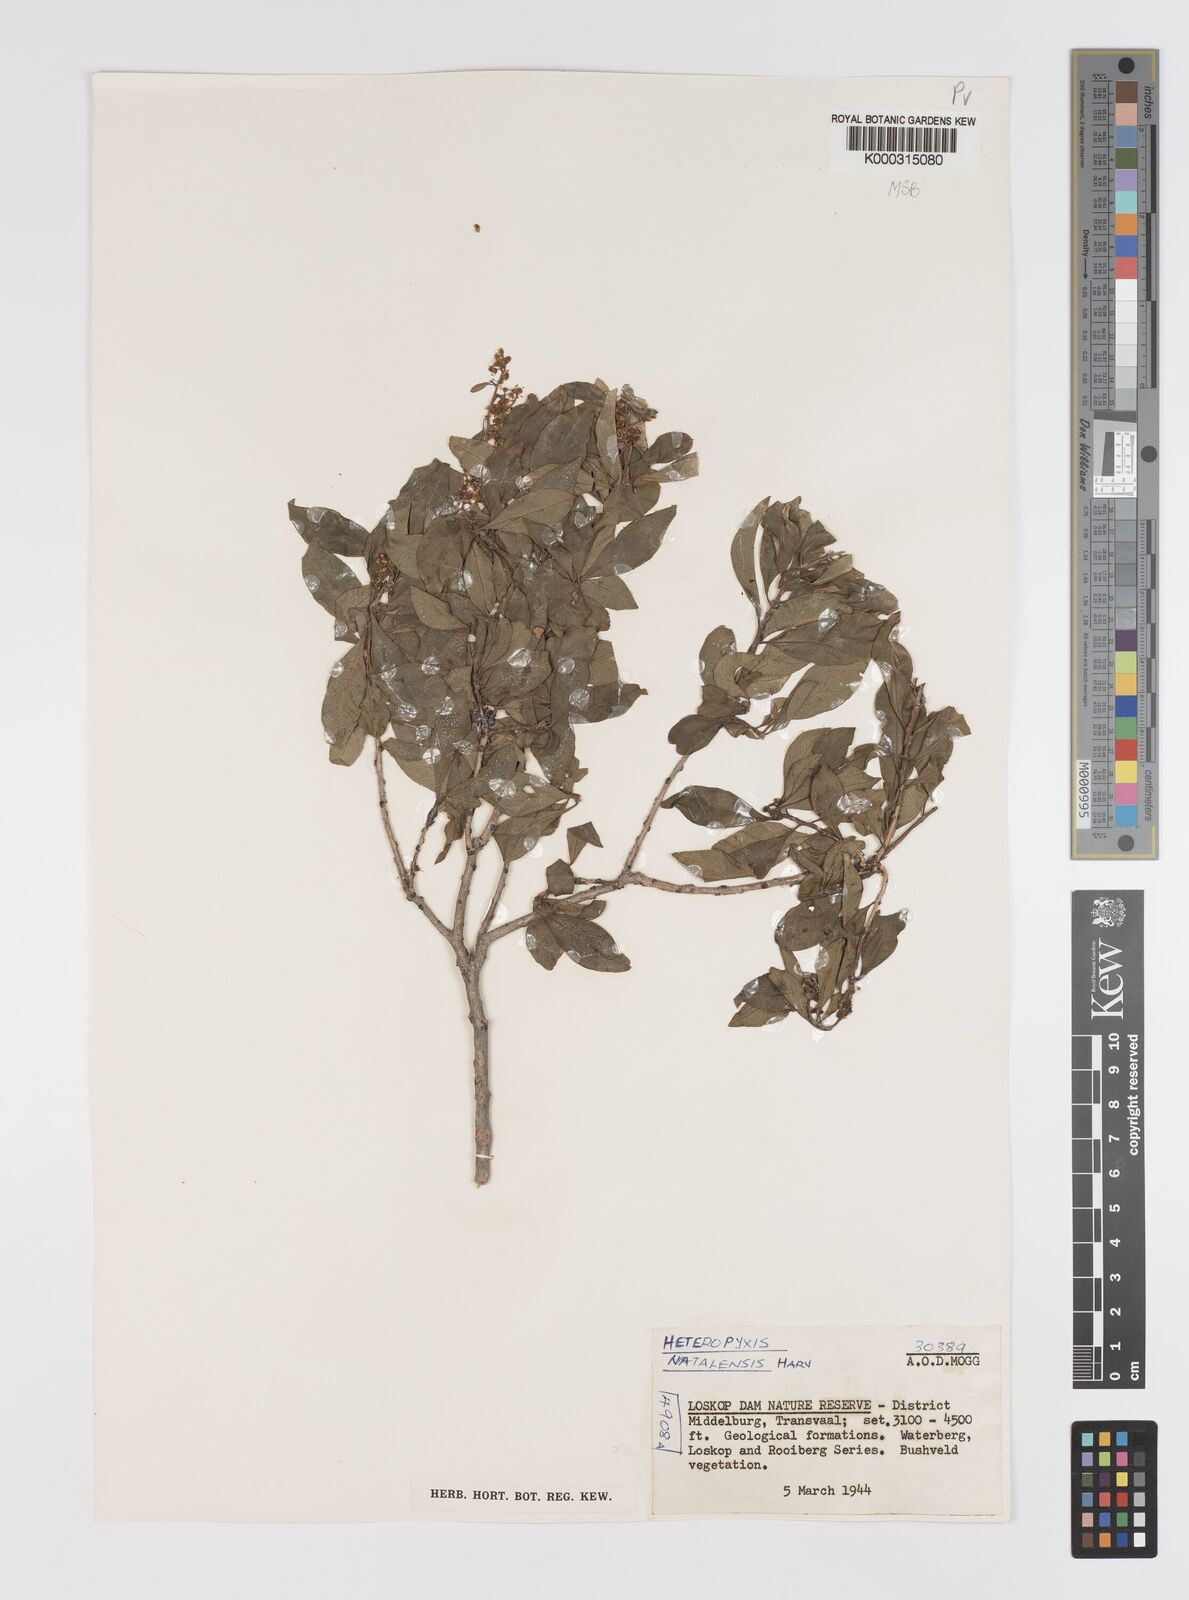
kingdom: Plantae
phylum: Tracheophyta
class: Magnoliopsida
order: Myrtales
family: Myrtaceae
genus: Heteropyxis
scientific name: Heteropyxis natalensis
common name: Lavender tree
